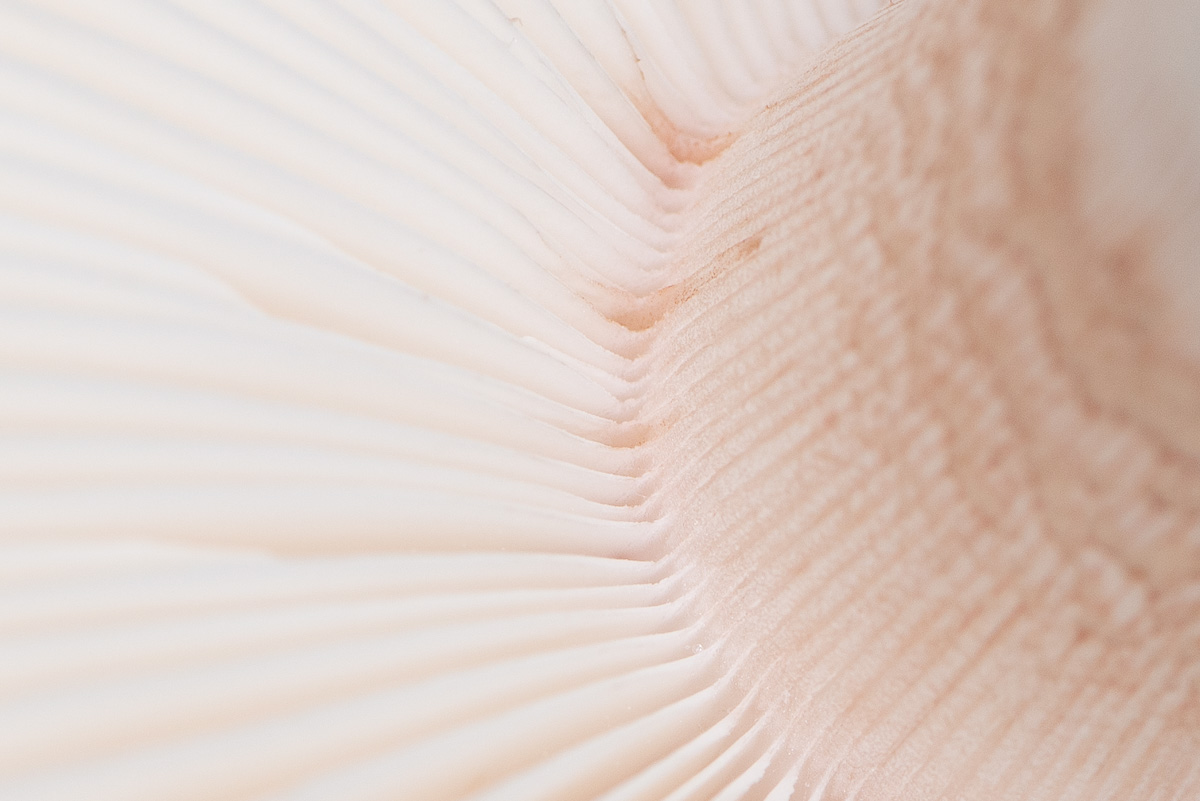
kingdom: Fungi
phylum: Basidiomycota
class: Agaricomycetes
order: Agaricales
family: Amanitaceae
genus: Amanita
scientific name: Amanita rubescens
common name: rødmende fluesvamp
